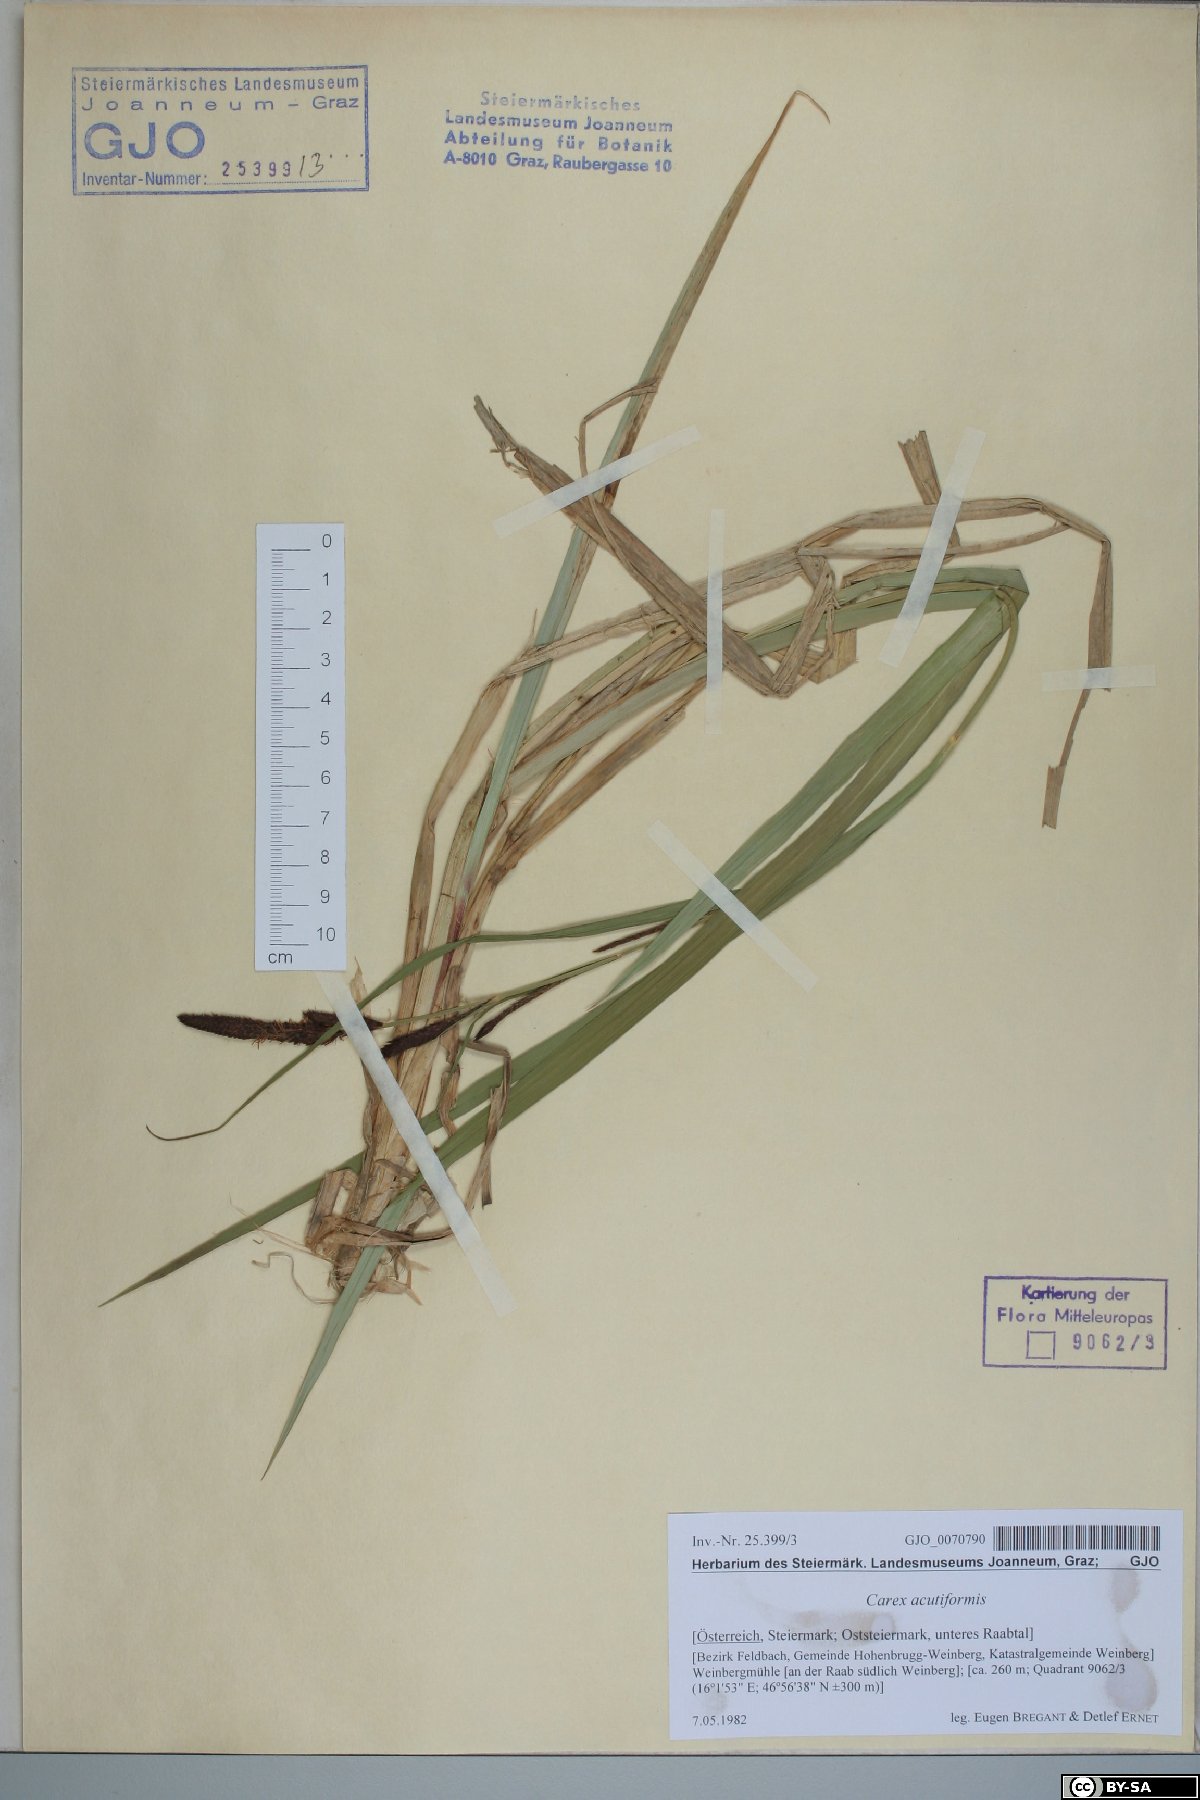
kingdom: Plantae
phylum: Tracheophyta
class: Liliopsida
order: Poales
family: Cyperaceae
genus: Carex
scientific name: Carex acutiformis
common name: Lesser pond-sedge
